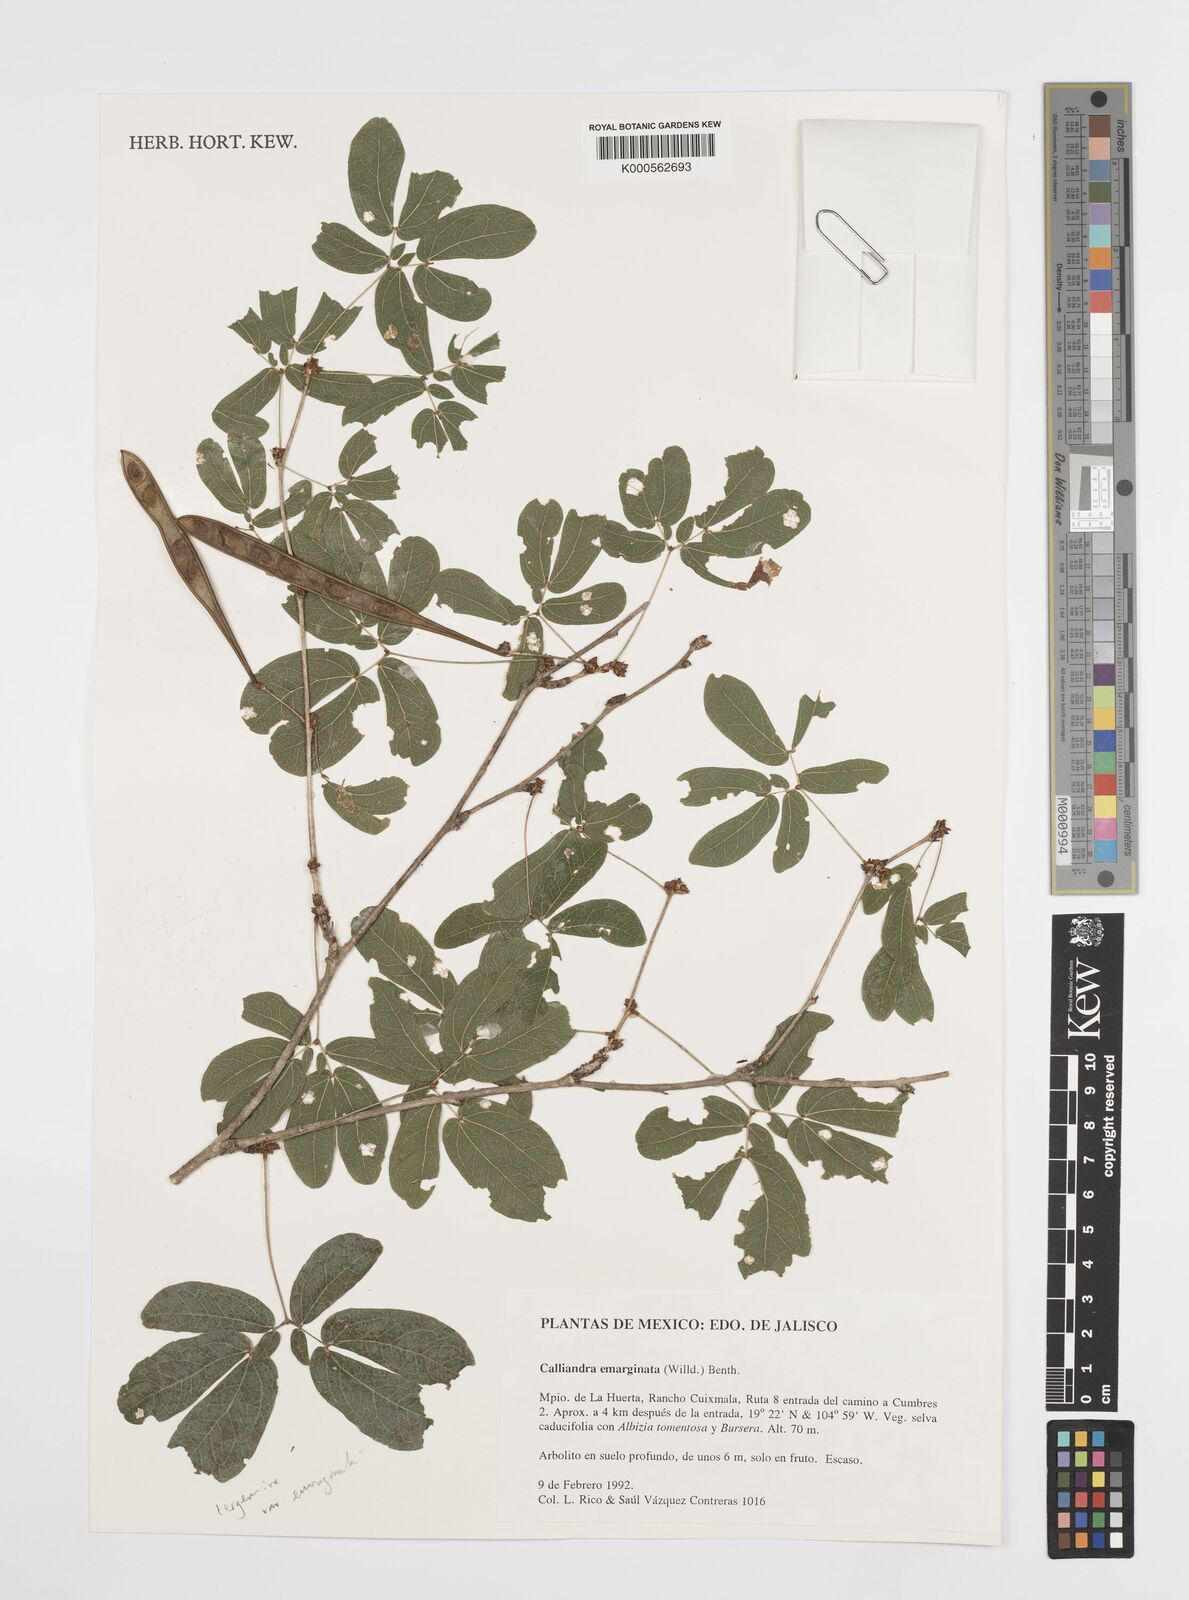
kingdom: Plantae
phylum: Tracheophyta
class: Magnoliopsida
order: Fabales
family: Fabaceae
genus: Calliandra
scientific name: Calliandra tergemina
